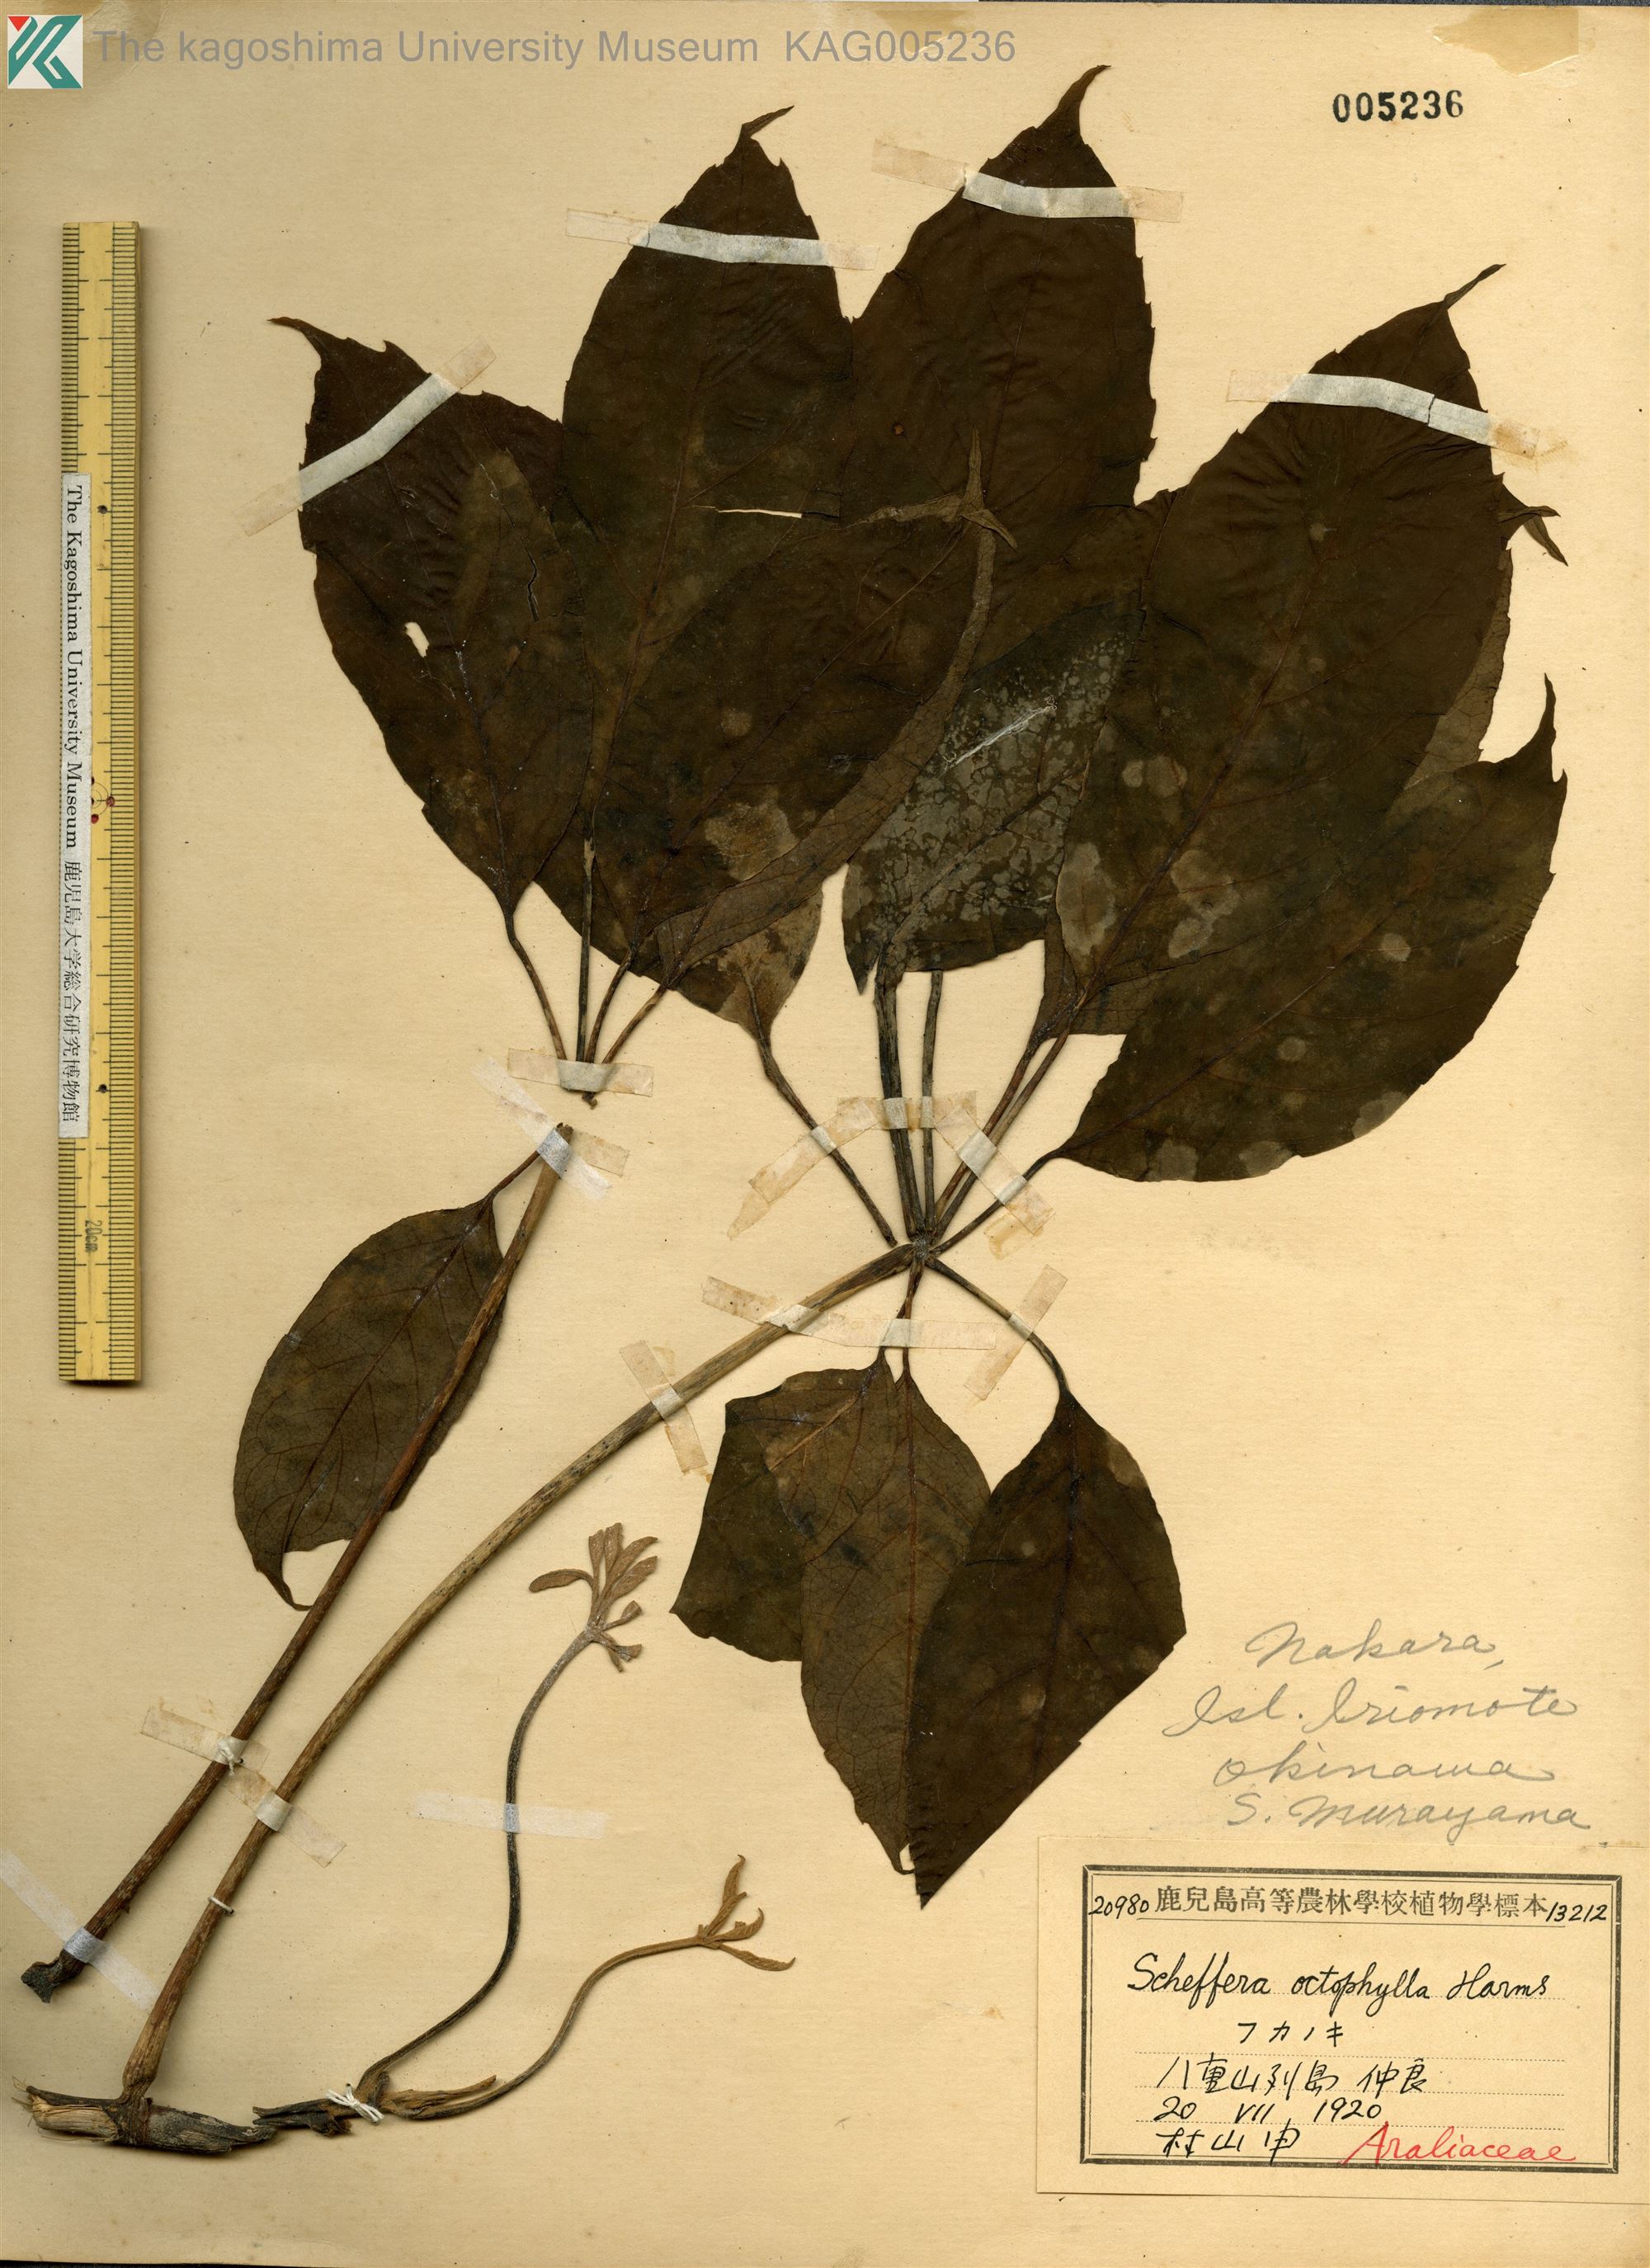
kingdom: Plantae
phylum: Tracheophyta
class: Magnoliopsida
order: Apiales
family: Araliaceae
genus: Heptapleurum
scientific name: Heptapleurum heptaphyllum
